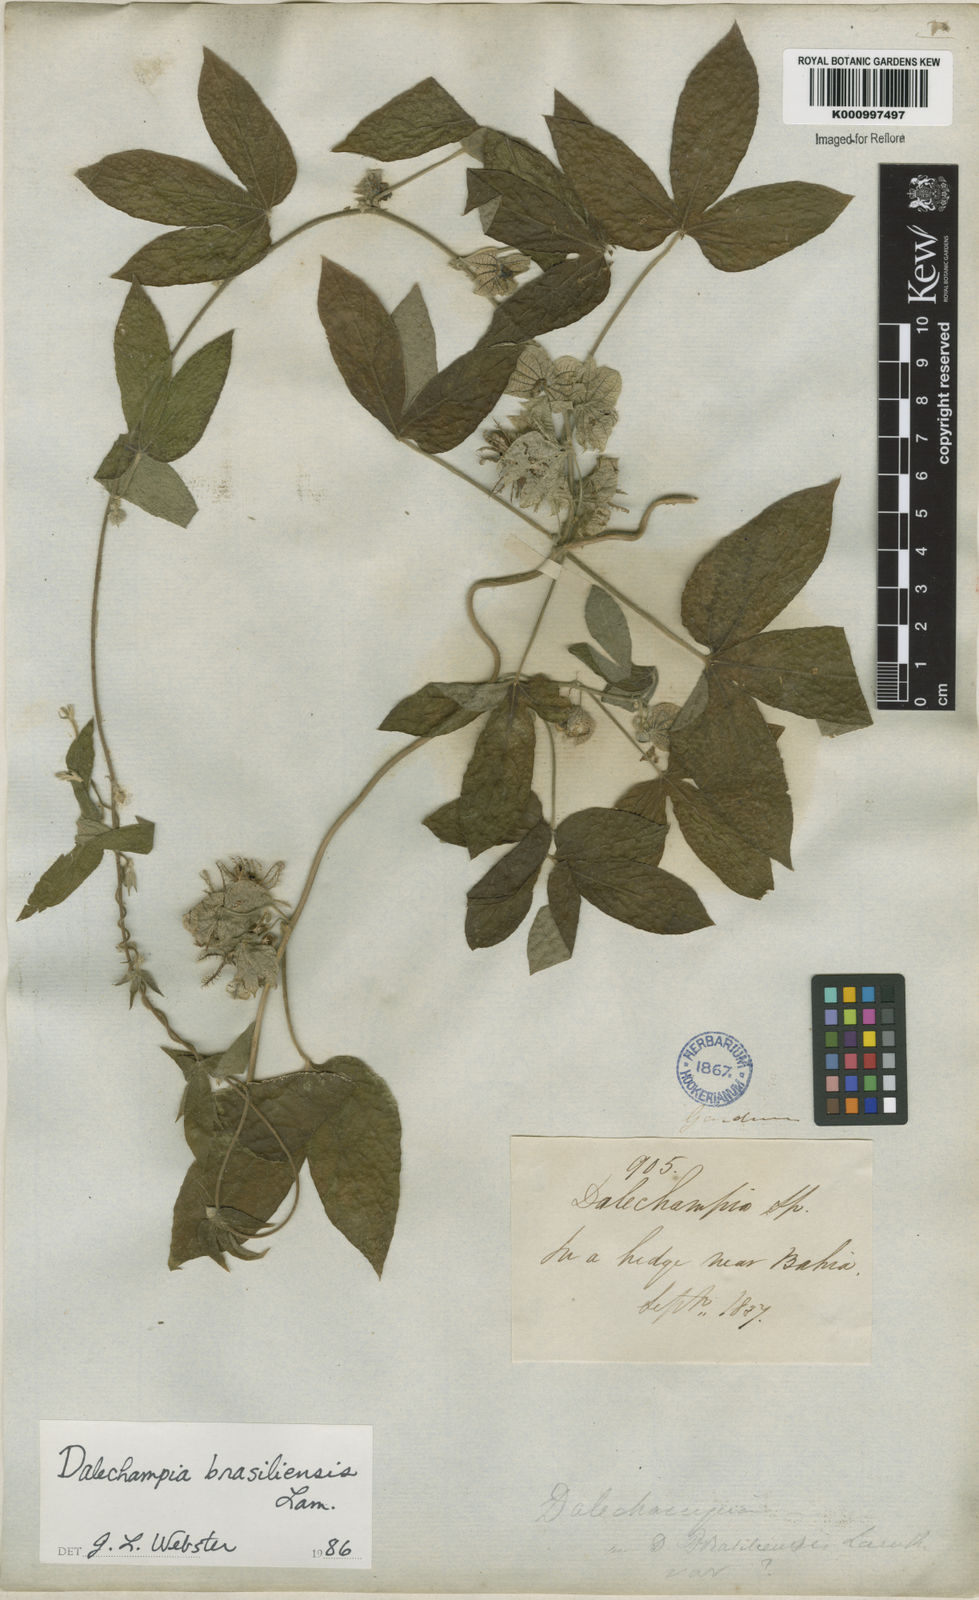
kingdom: Plantae
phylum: Tracheophyta
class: Magnoliopsida
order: Malpighiales
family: Euphorbiaceae
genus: Dalechampia
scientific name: Dalechampia brasiliensis
